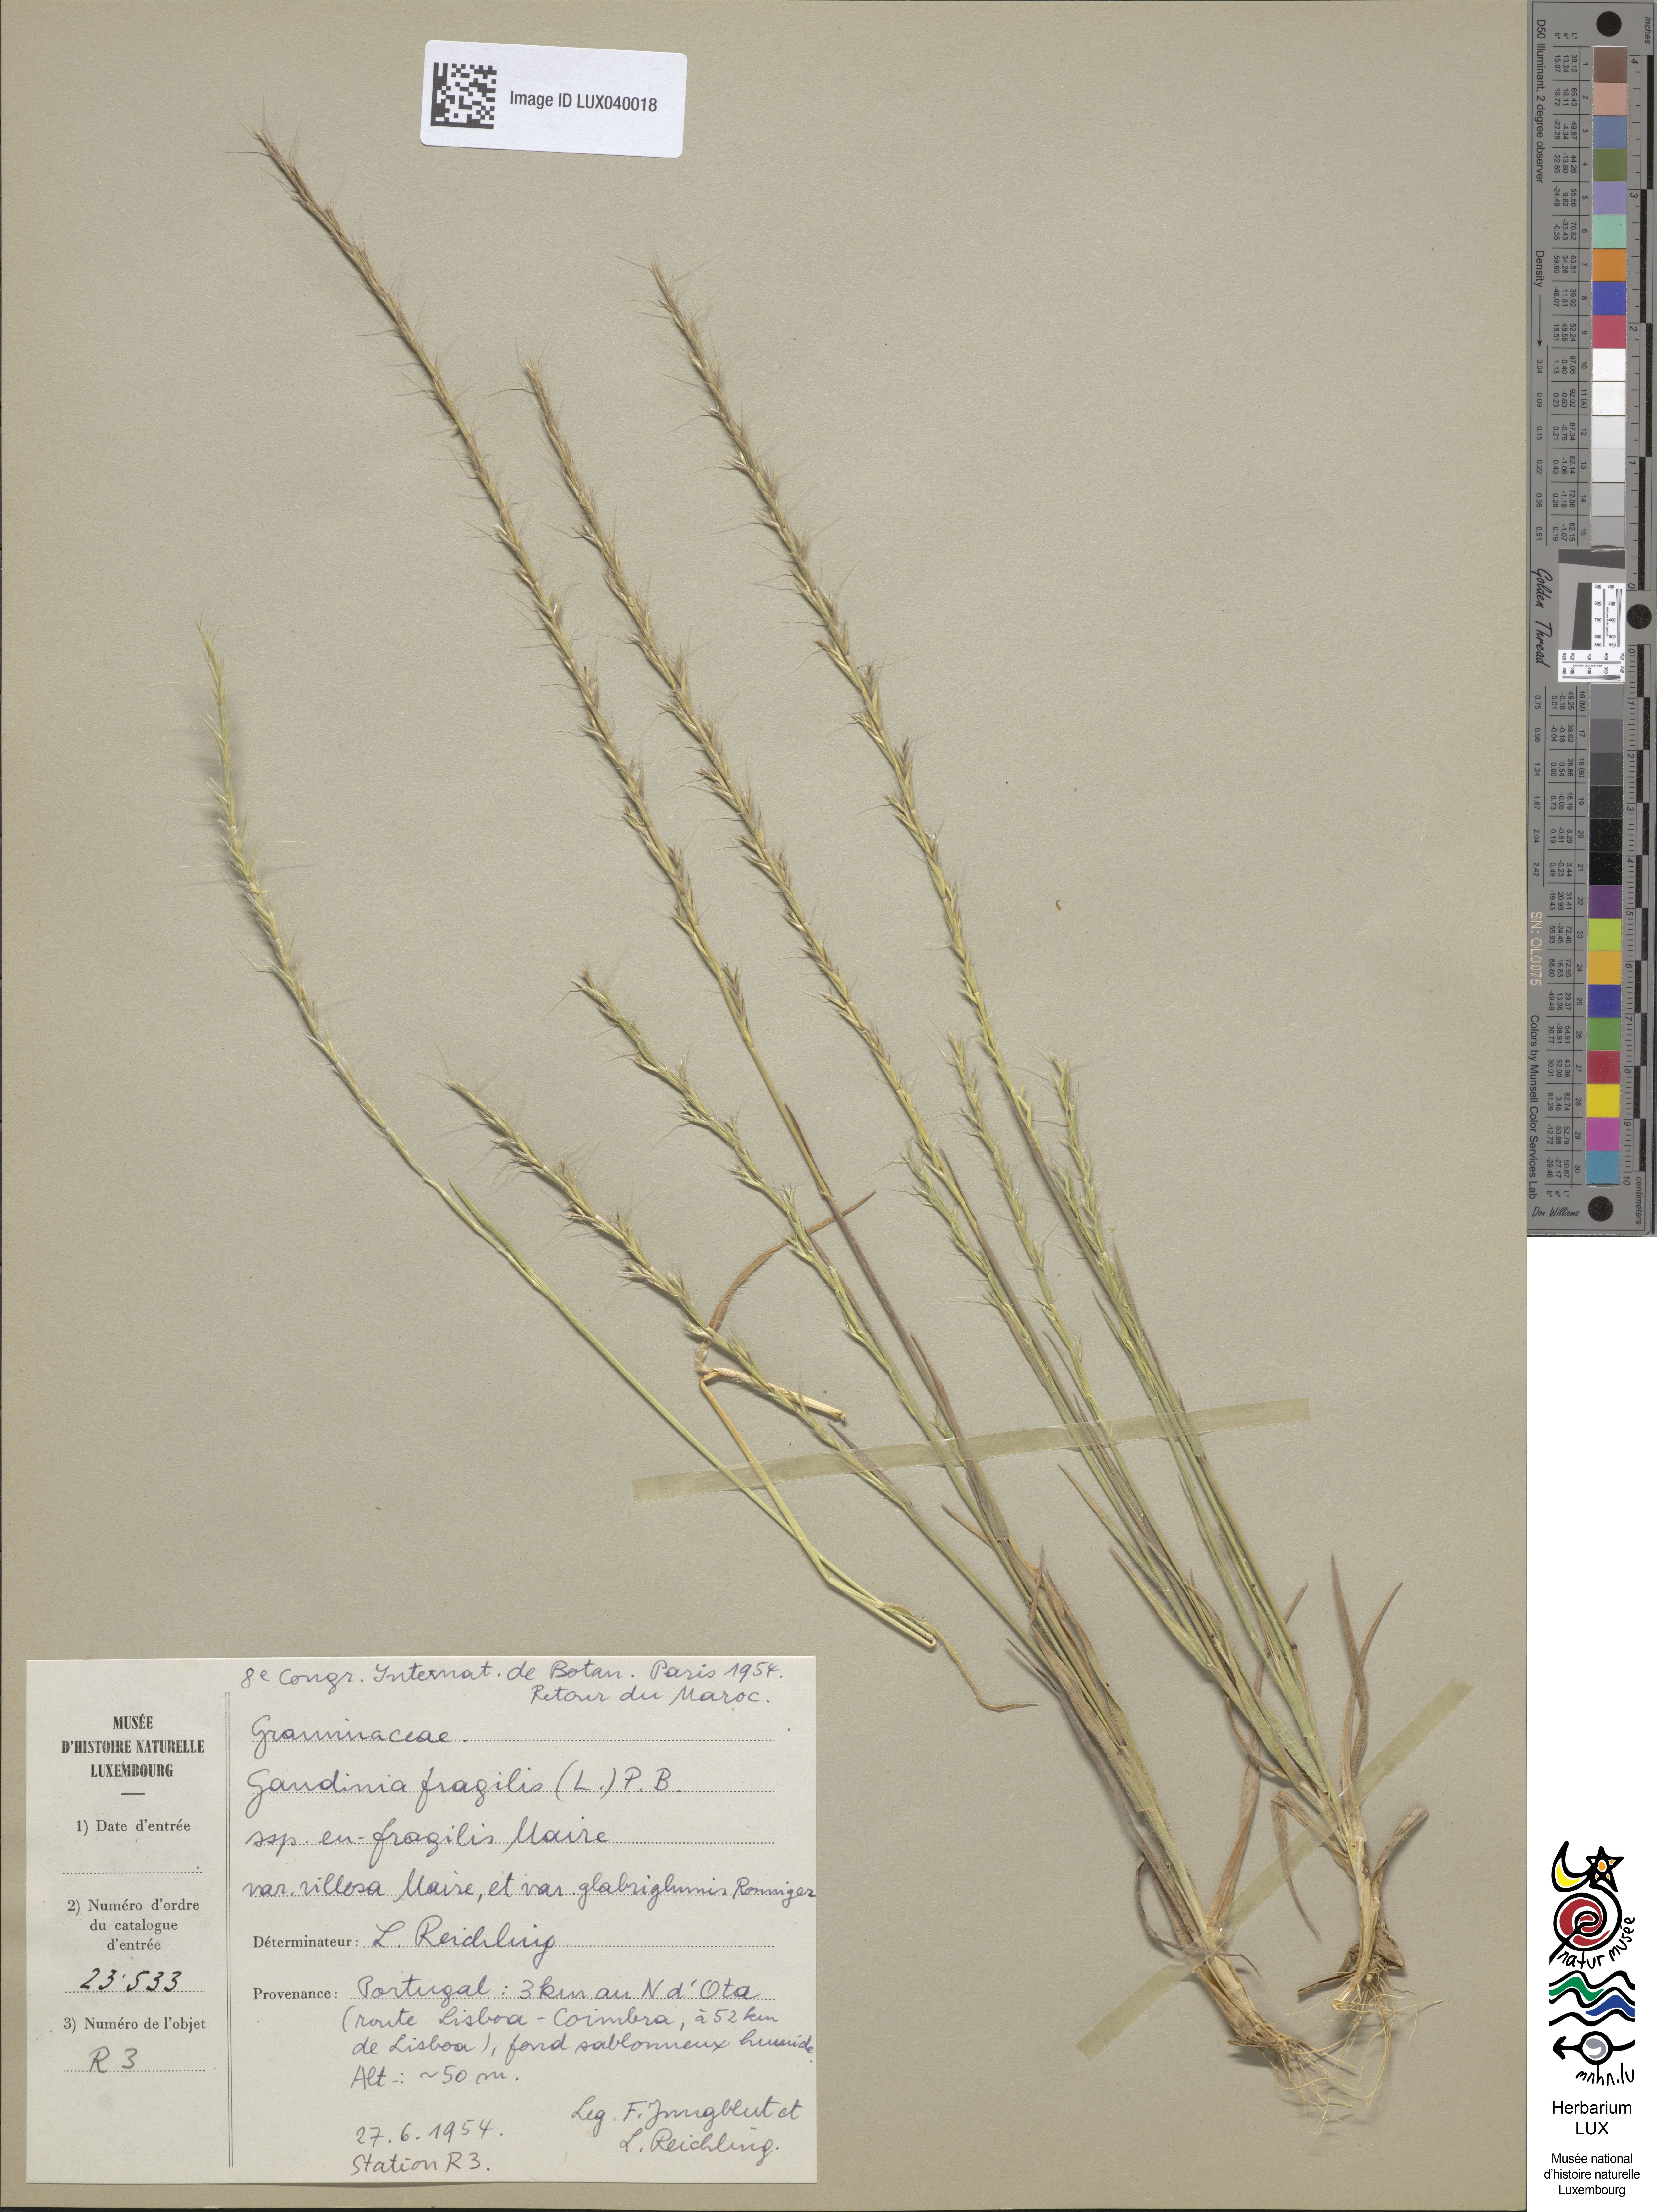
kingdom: Plantae
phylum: Tracheophyta
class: Liliopsida
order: Poales
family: Poaceae
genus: Gaudinia
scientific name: Gaudinia fragilis
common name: French oat-grass
